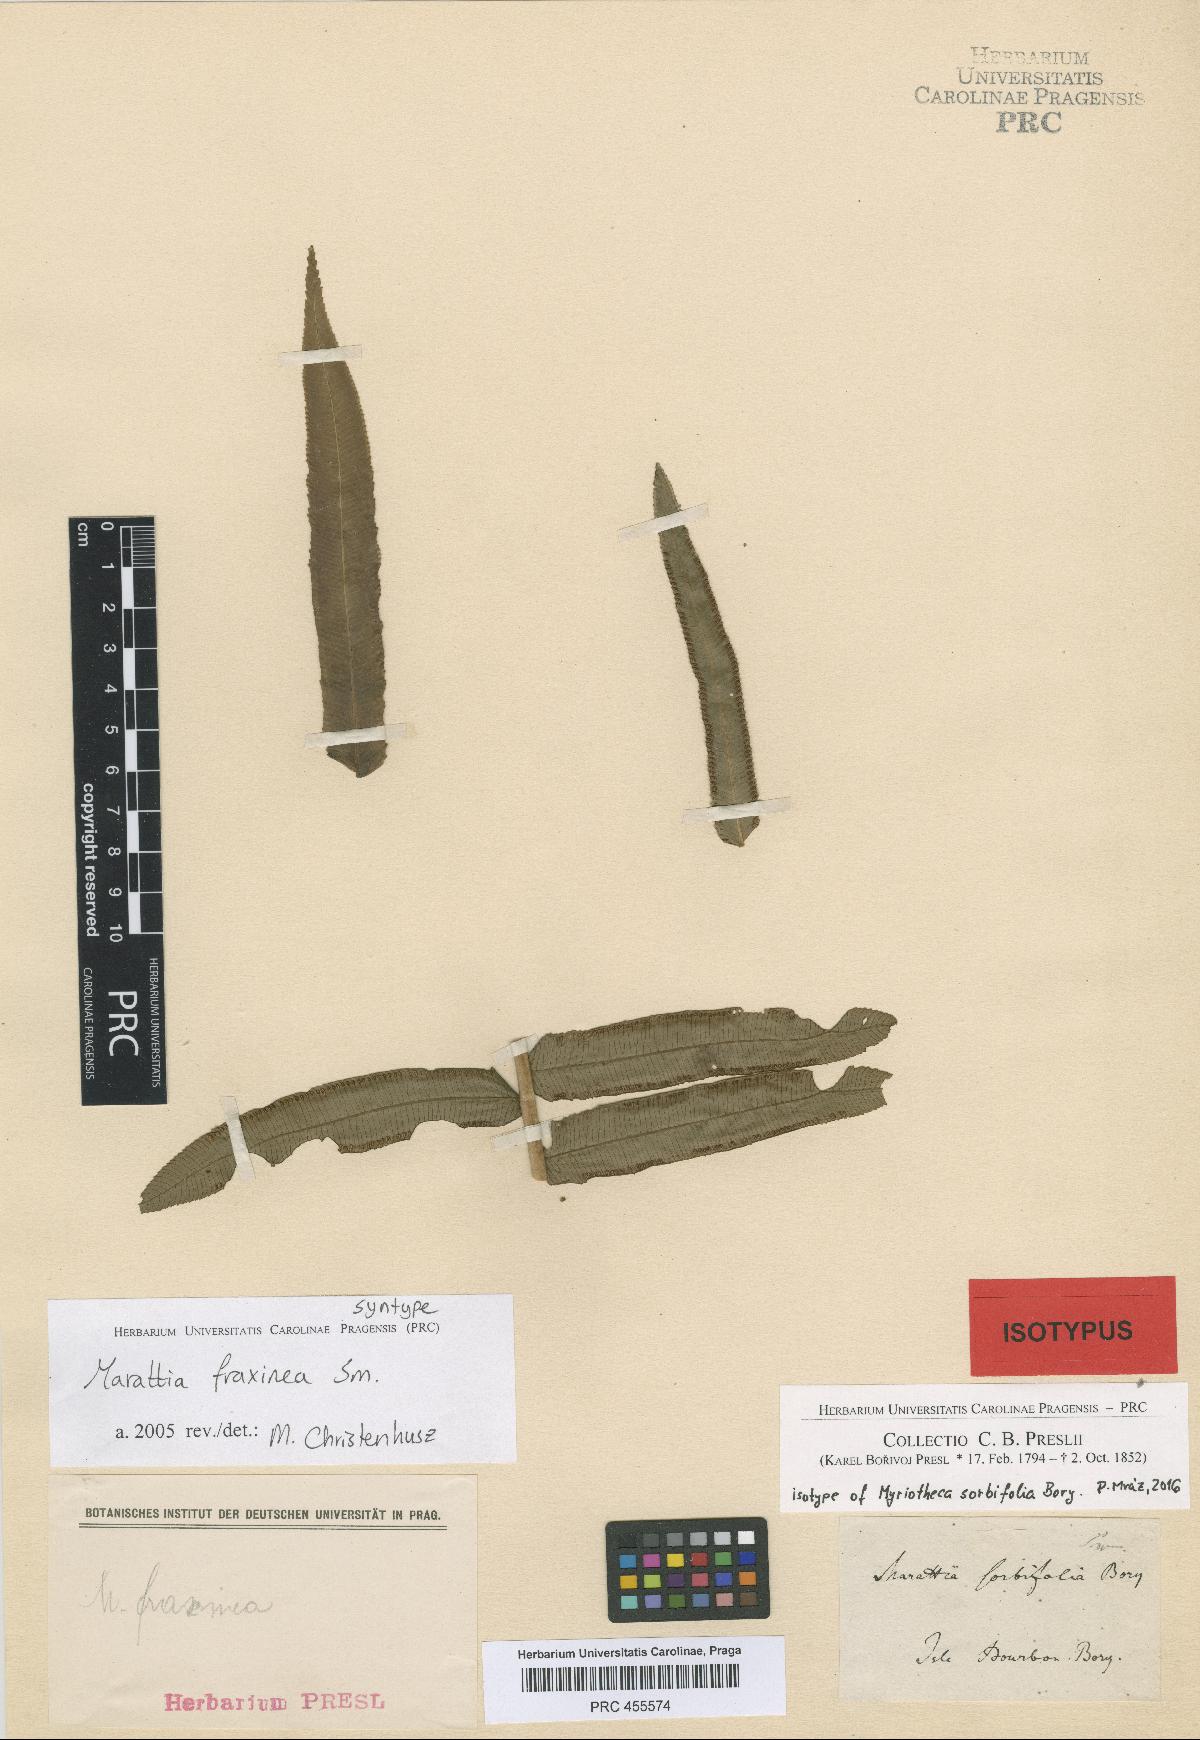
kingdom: Plantae
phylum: Tracheophyta
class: Polypodiopsida
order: Marattiales
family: Marattiaceae
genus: Ptisana
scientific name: Ptisana fraxinea
